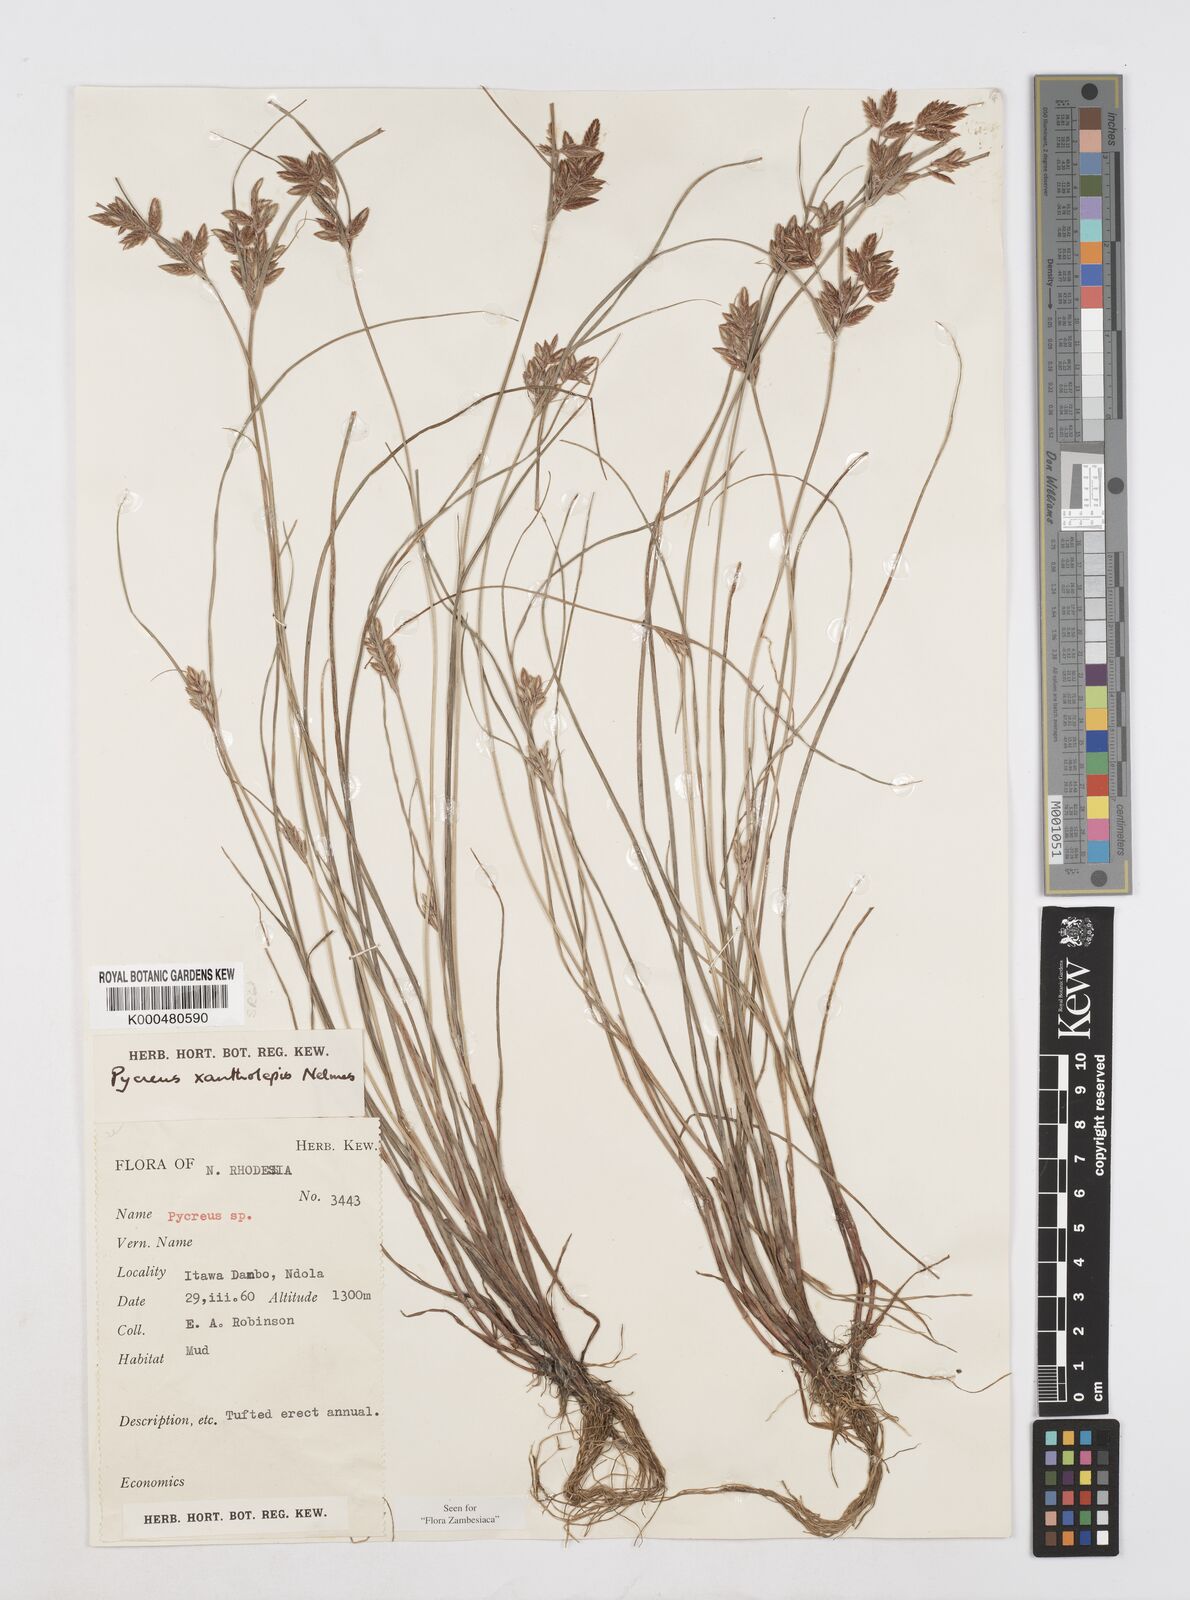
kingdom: Plantae
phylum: Tracheophyta
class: Liliopsida
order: Poales
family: Cyperaceae
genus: Cyperus
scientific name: Cyperus xantholepis
